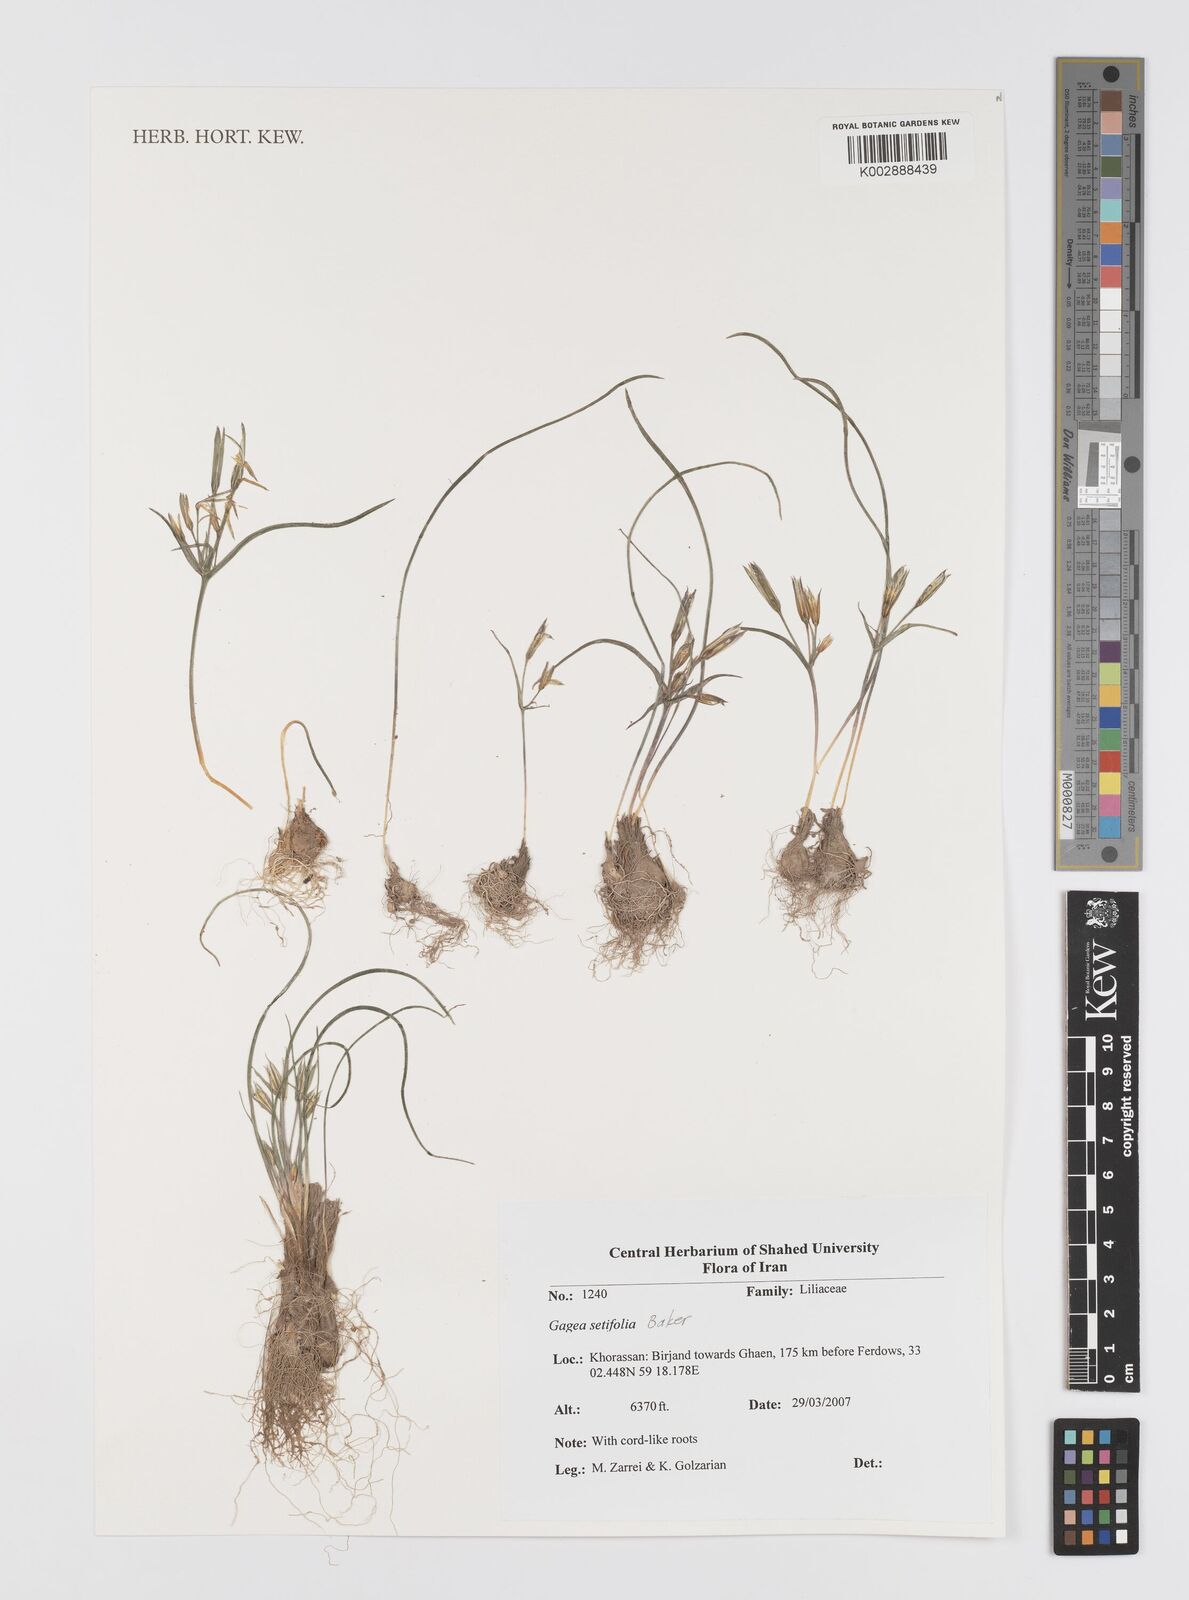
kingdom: Plantae
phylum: Tracheophyta
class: Liliopsida
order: Liliales
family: Liliaceae
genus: Gagea
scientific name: Gagea setifolia
